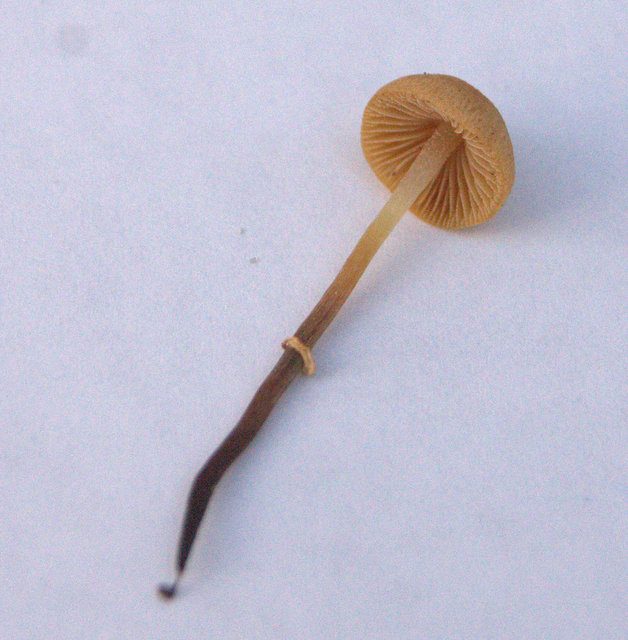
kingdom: Fungi
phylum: Basidiomycota
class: Agaricomycetes
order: Agaricales
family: Bolbitiaceae
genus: Pholiotina
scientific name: Pholiotina teneroides
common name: tosporet dansehat
